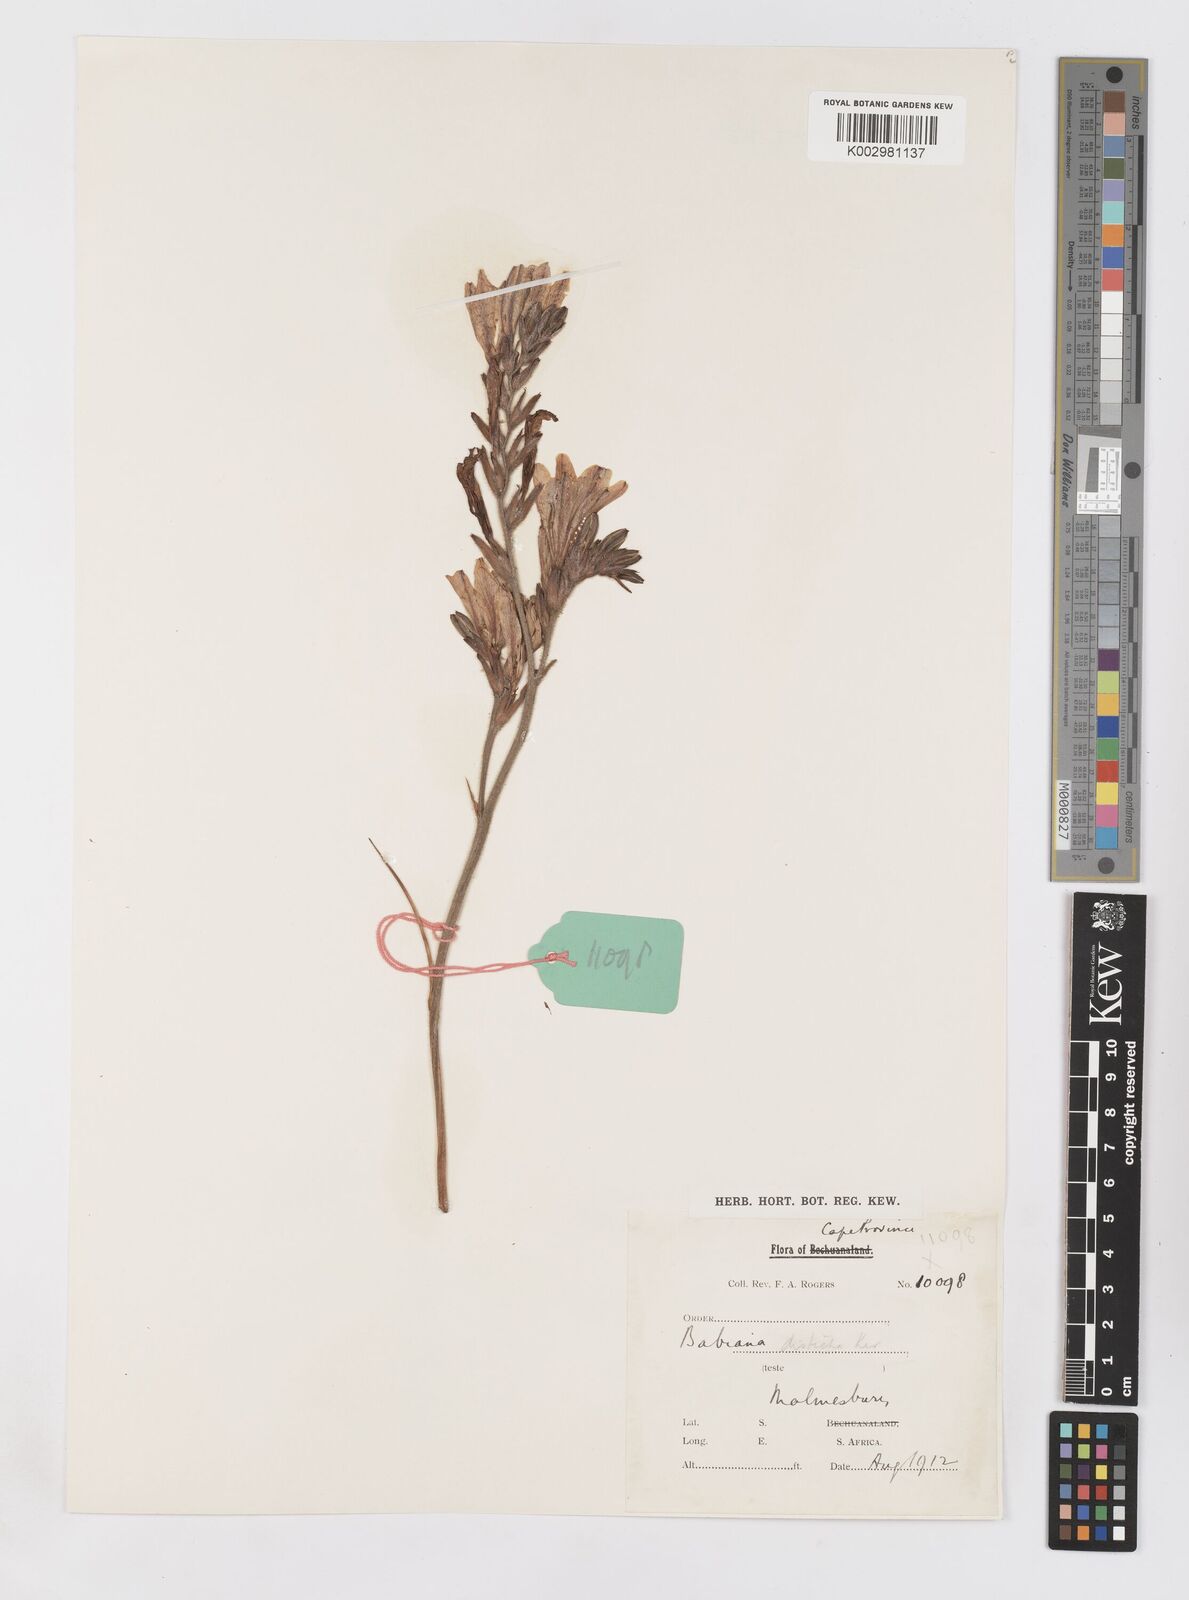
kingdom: Plantae
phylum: Tracheophyta
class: Liliopsida
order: Asparagales
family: Iridaceae
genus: Babiana
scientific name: Babiana
